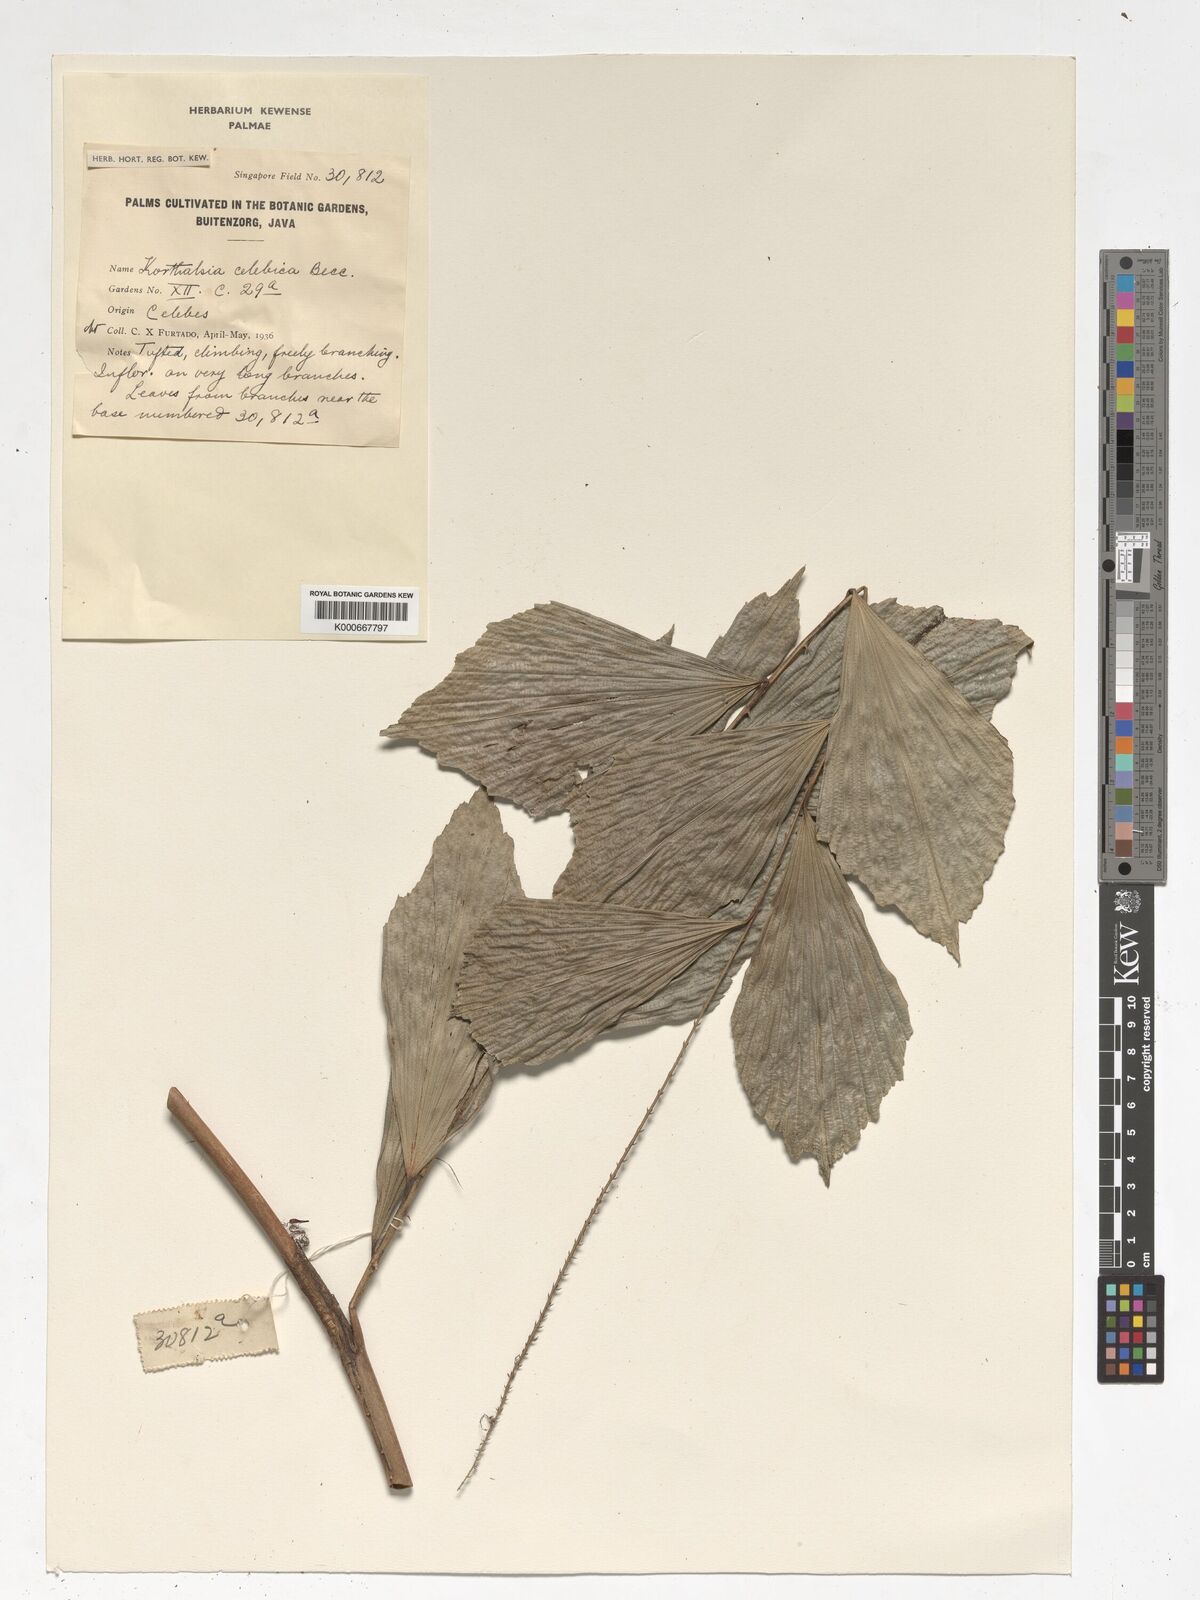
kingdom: Plantae
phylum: Tracheophyta
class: Liliopsida
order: Arecales
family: Arecaceae
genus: Korthalsia
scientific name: Korthalsia celebica
